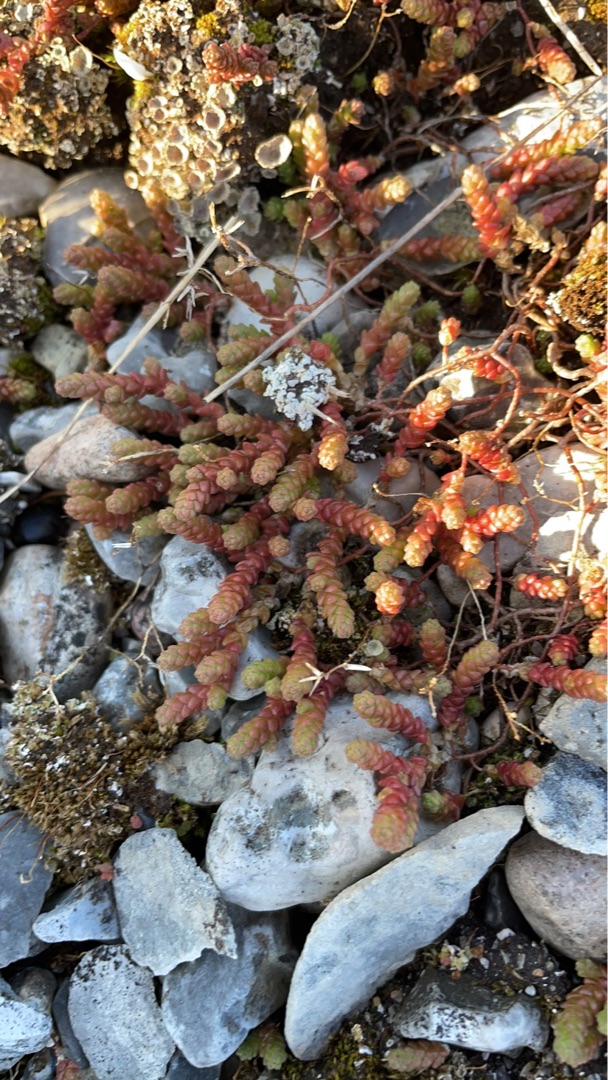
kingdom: Plantae
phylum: Tracheophyta
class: Magnoliopsida
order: Saxifragales
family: Crassulaceae
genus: Sedum
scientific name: Sedum acre
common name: Bidende stenurt
